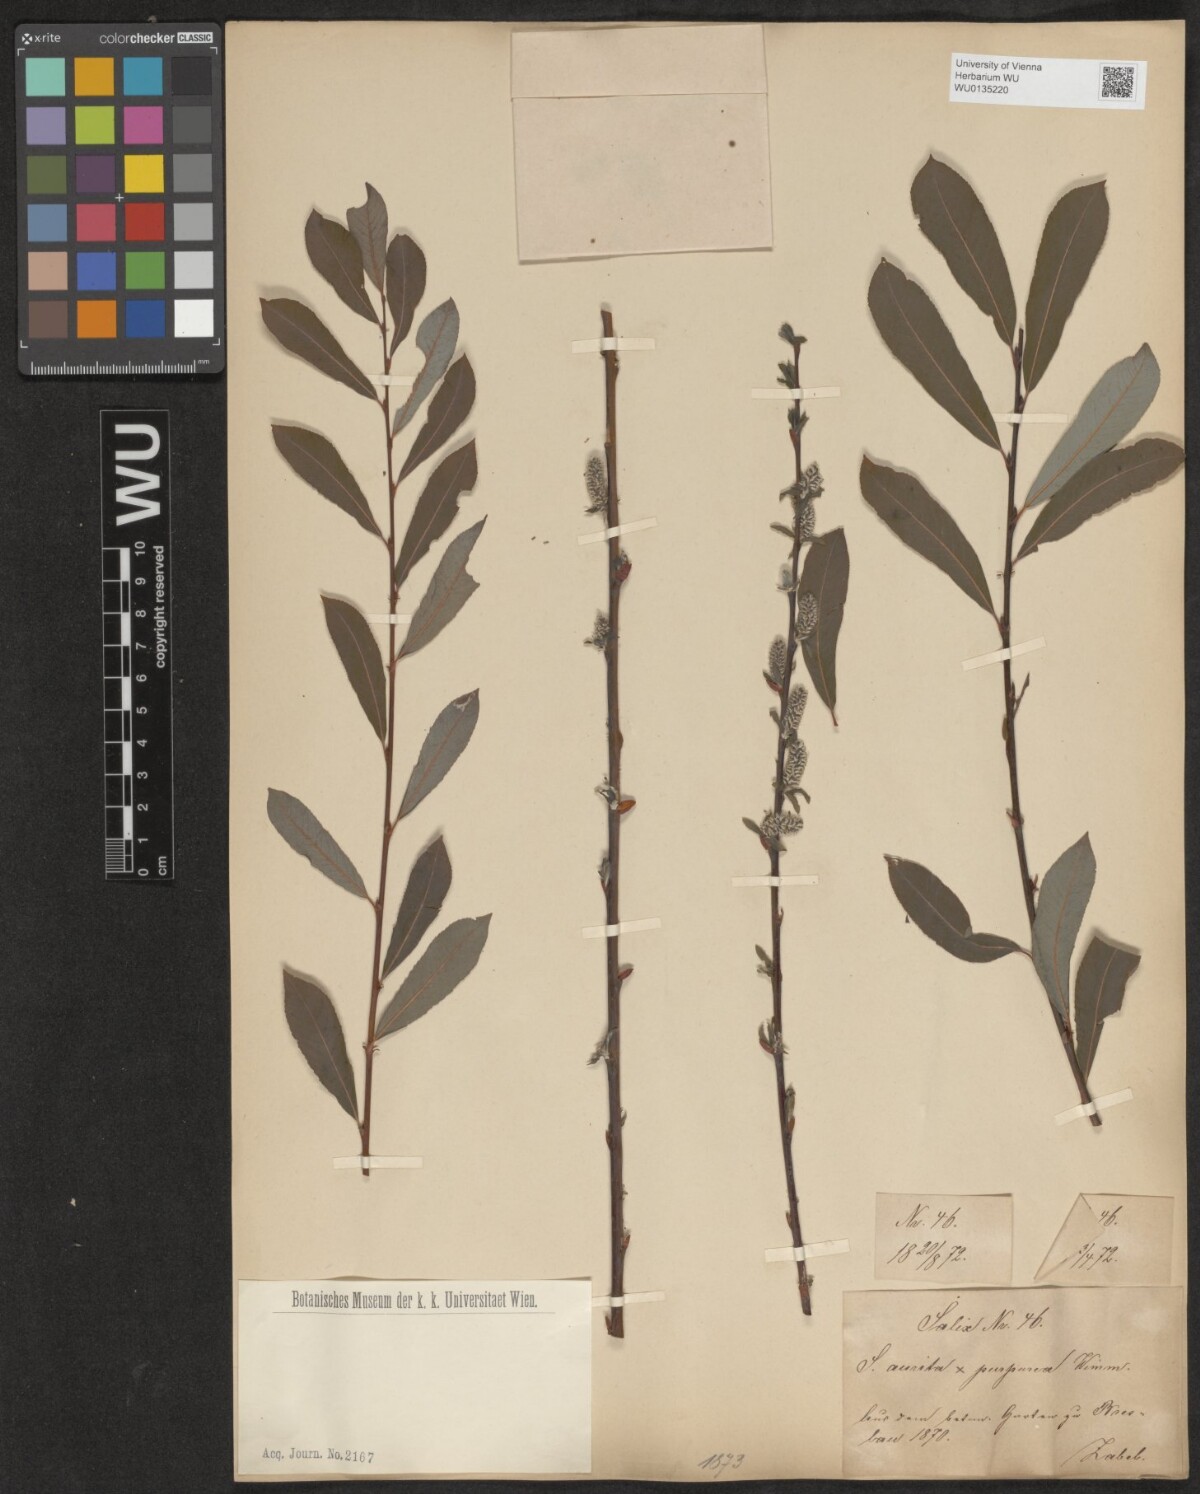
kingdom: Plantae
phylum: Tracheophyta
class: Magnoliopsida
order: Malpighiales
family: Salicaceae
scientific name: Salicaceae
